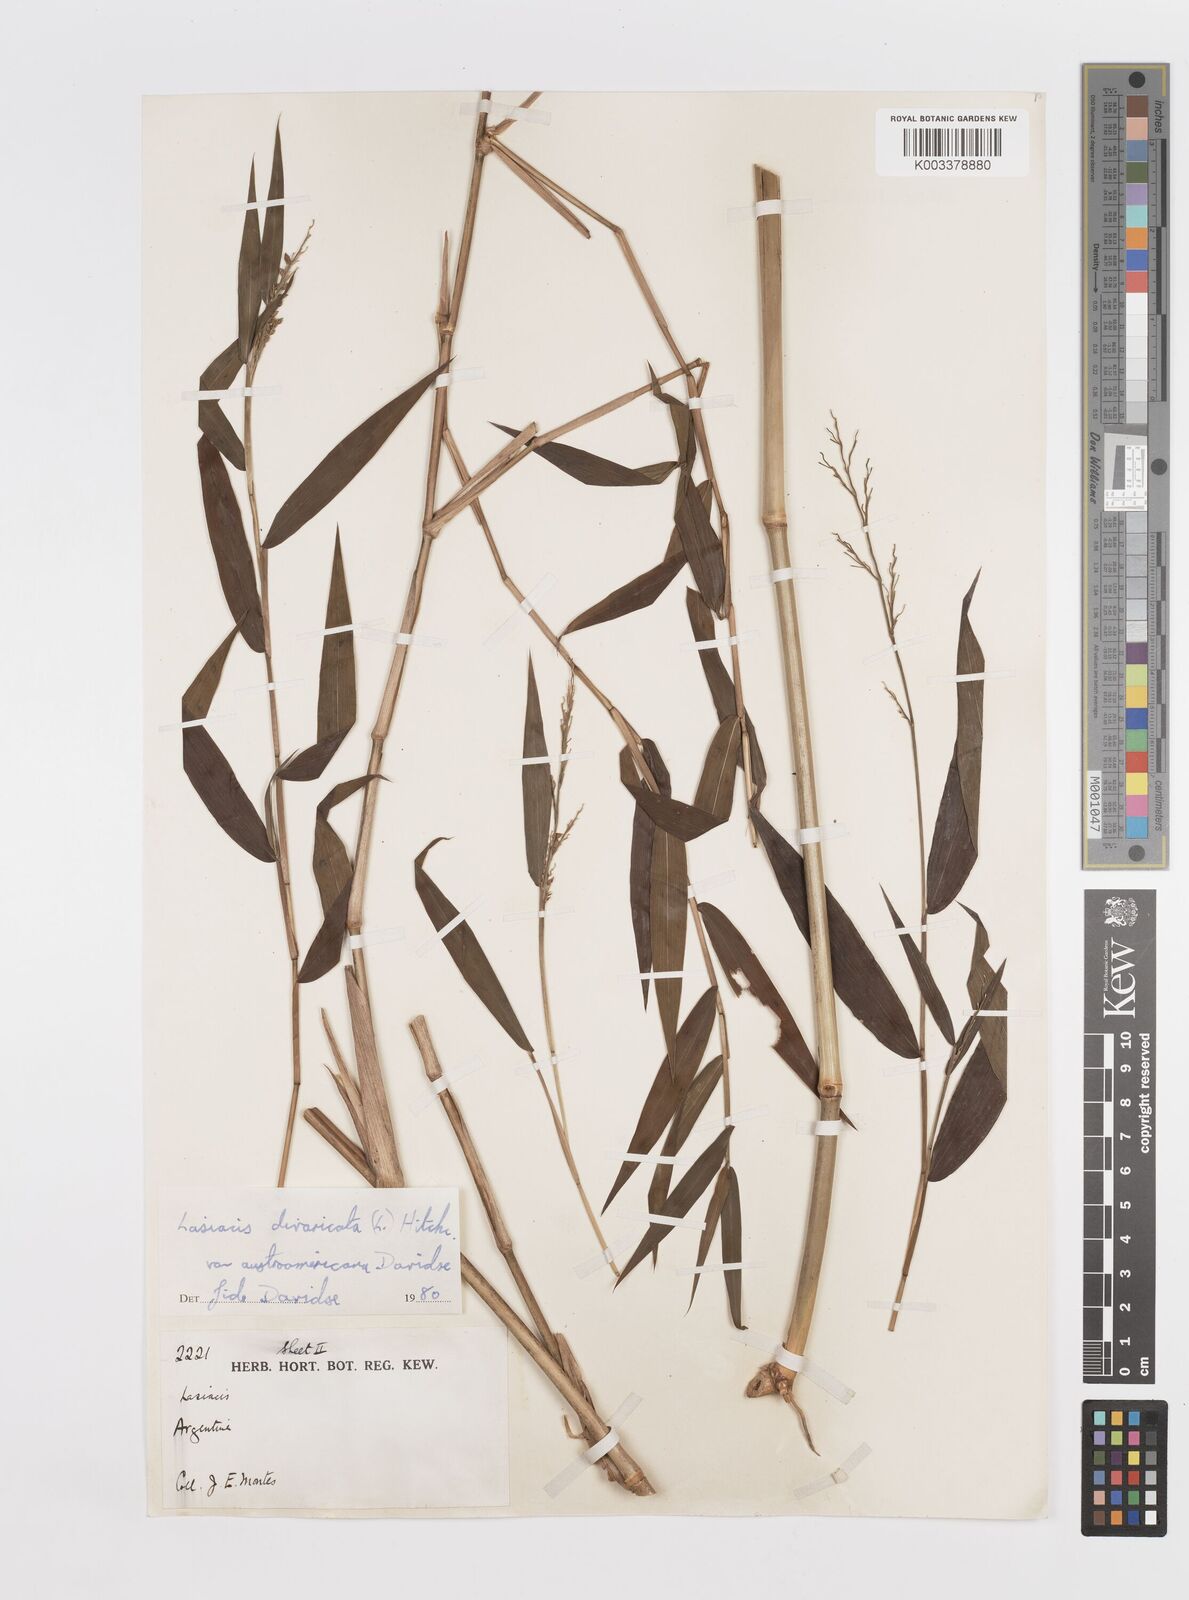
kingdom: Plantae
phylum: Tracheophyta
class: Liliopsida
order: Poales
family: Poaceae
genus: Lasiacis
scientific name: Lasiacis divaricata
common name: Smallcane
